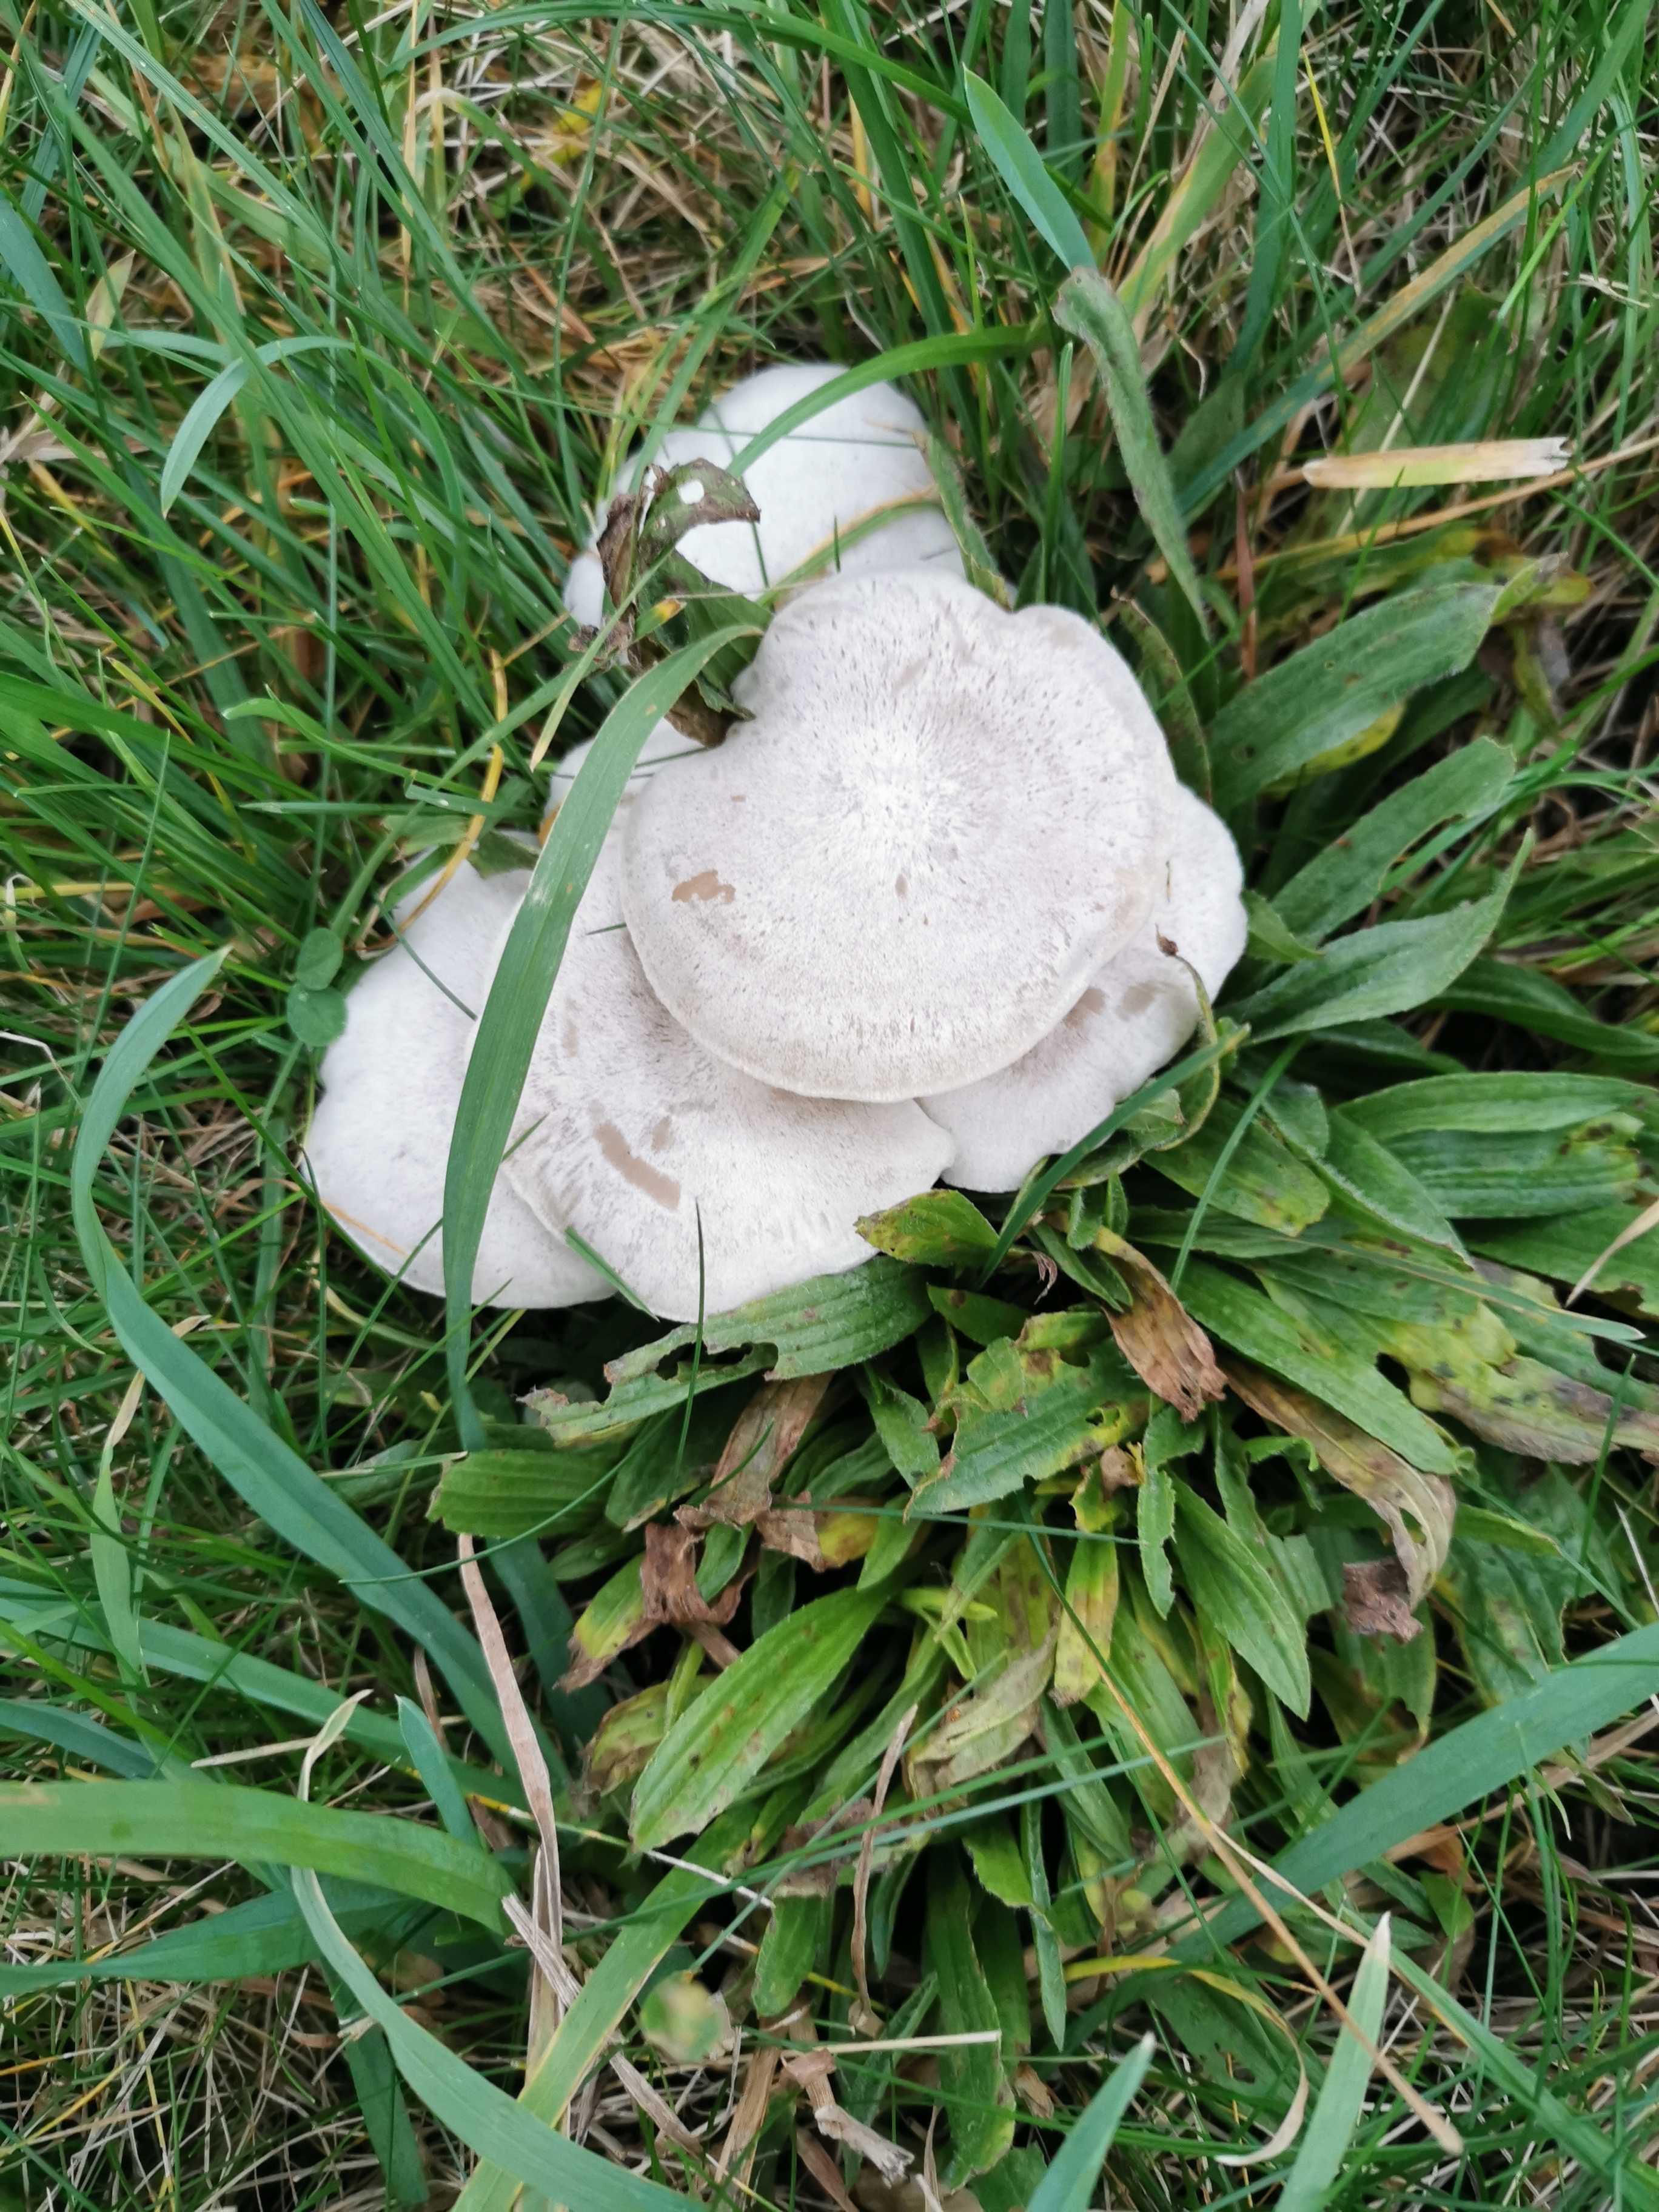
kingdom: Fungi
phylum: Basidiomycota
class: Agaricomycetes
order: Agaricales
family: Tricholomataceae
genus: Leucocybe
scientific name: Leucocybe connata
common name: knippe-tragthat
